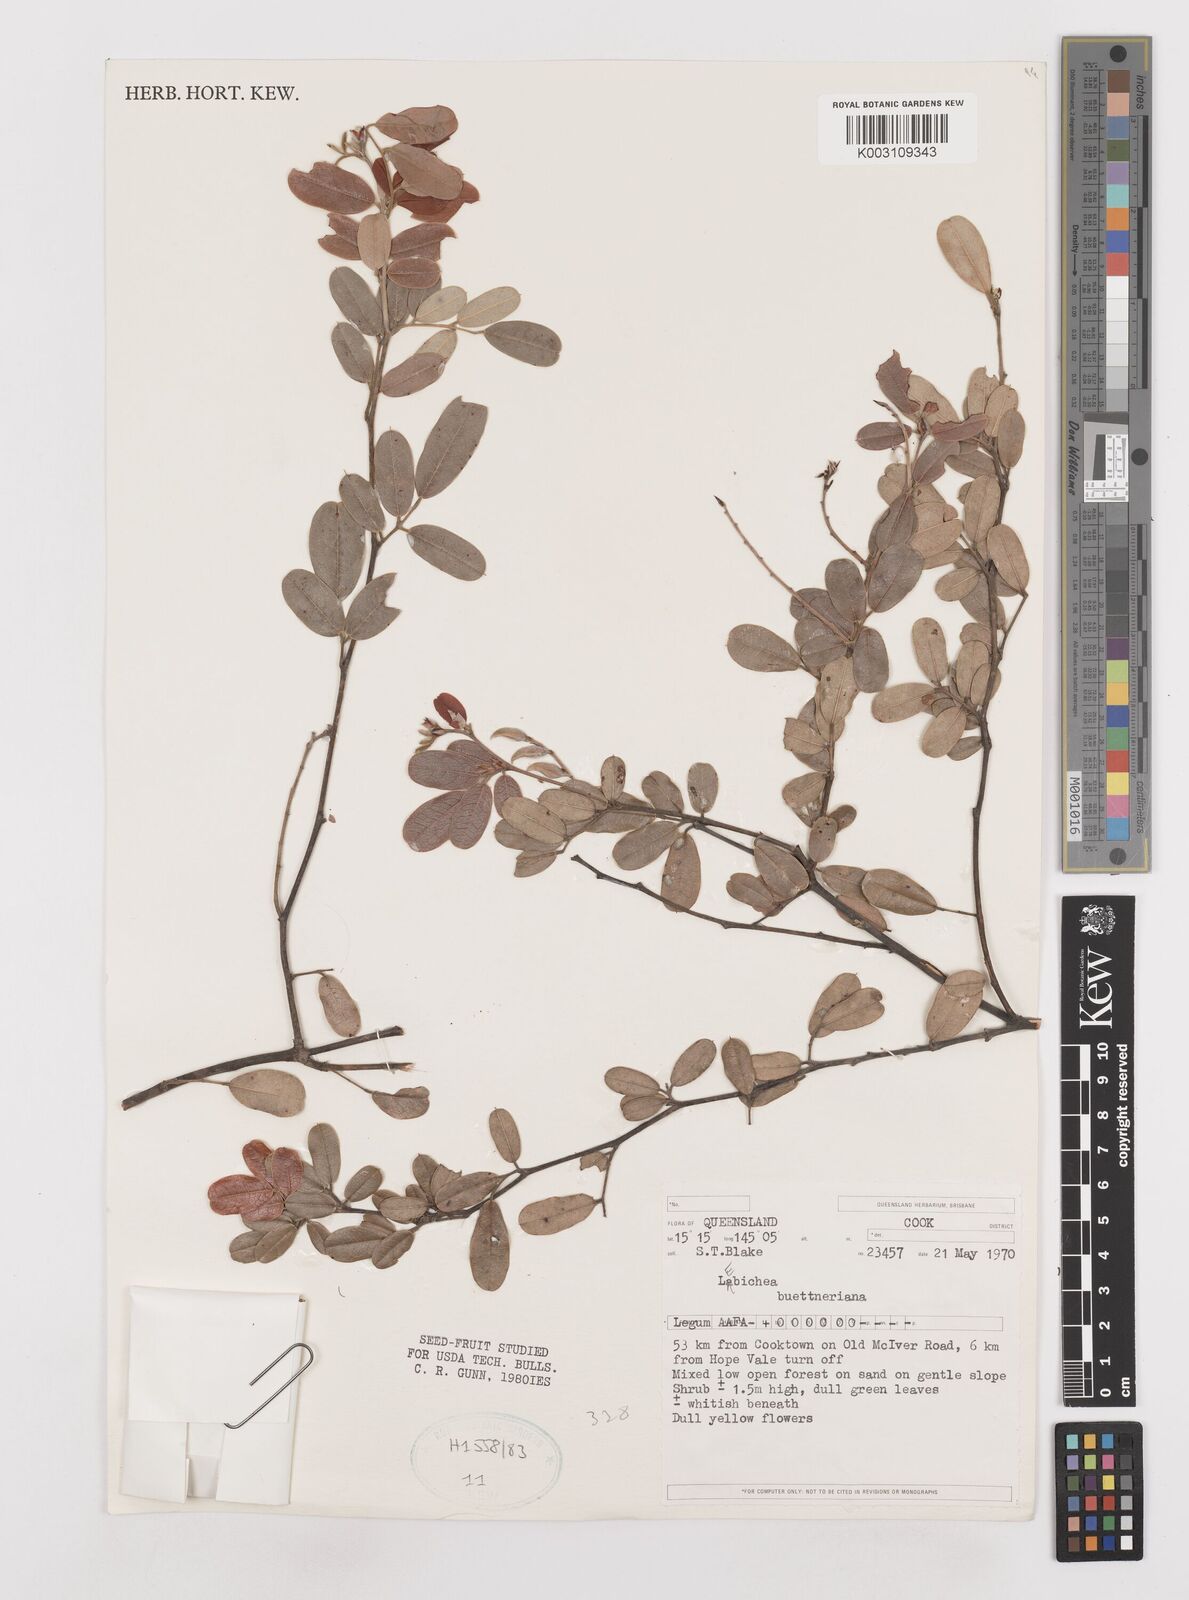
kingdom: Plantae
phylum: Tracheophyta
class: Magnoliopsida
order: Fabales
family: Fabaceae
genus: Labichea
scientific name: Labichea buettneriana
